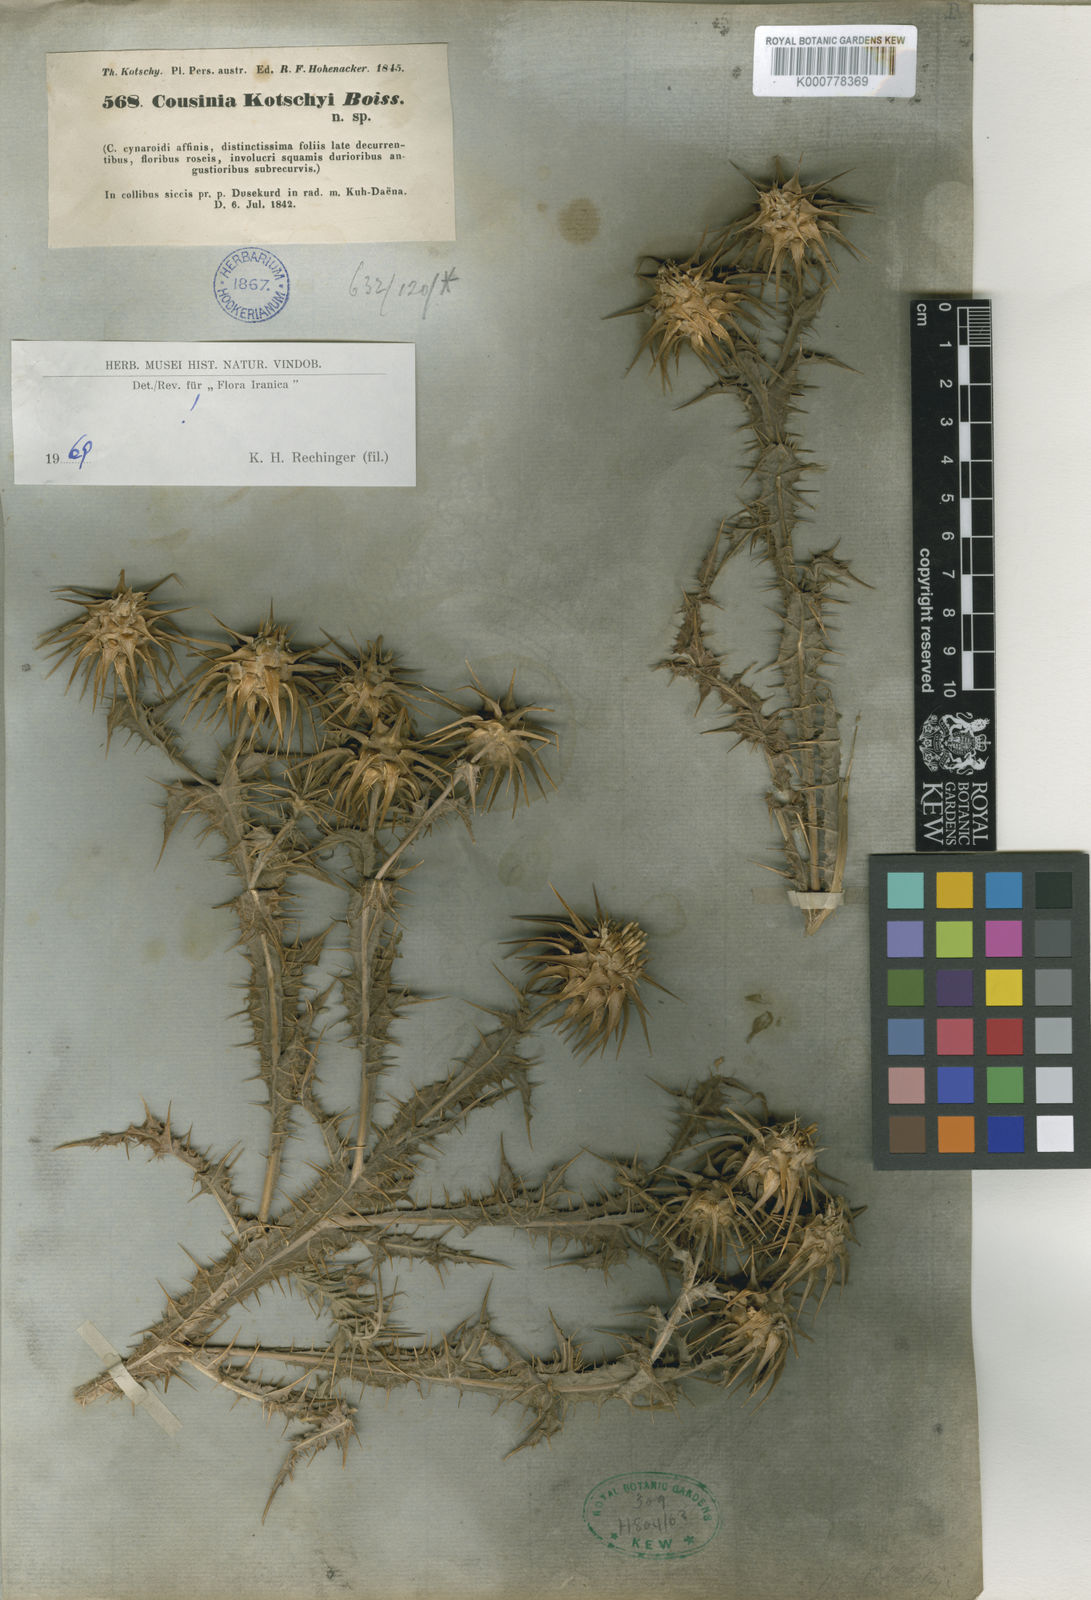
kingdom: Plantae
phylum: Tracheophyta
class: Magnoliopsida
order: Asterales
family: Asteraceae
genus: Cousinia
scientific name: Cousinia kotschyi
